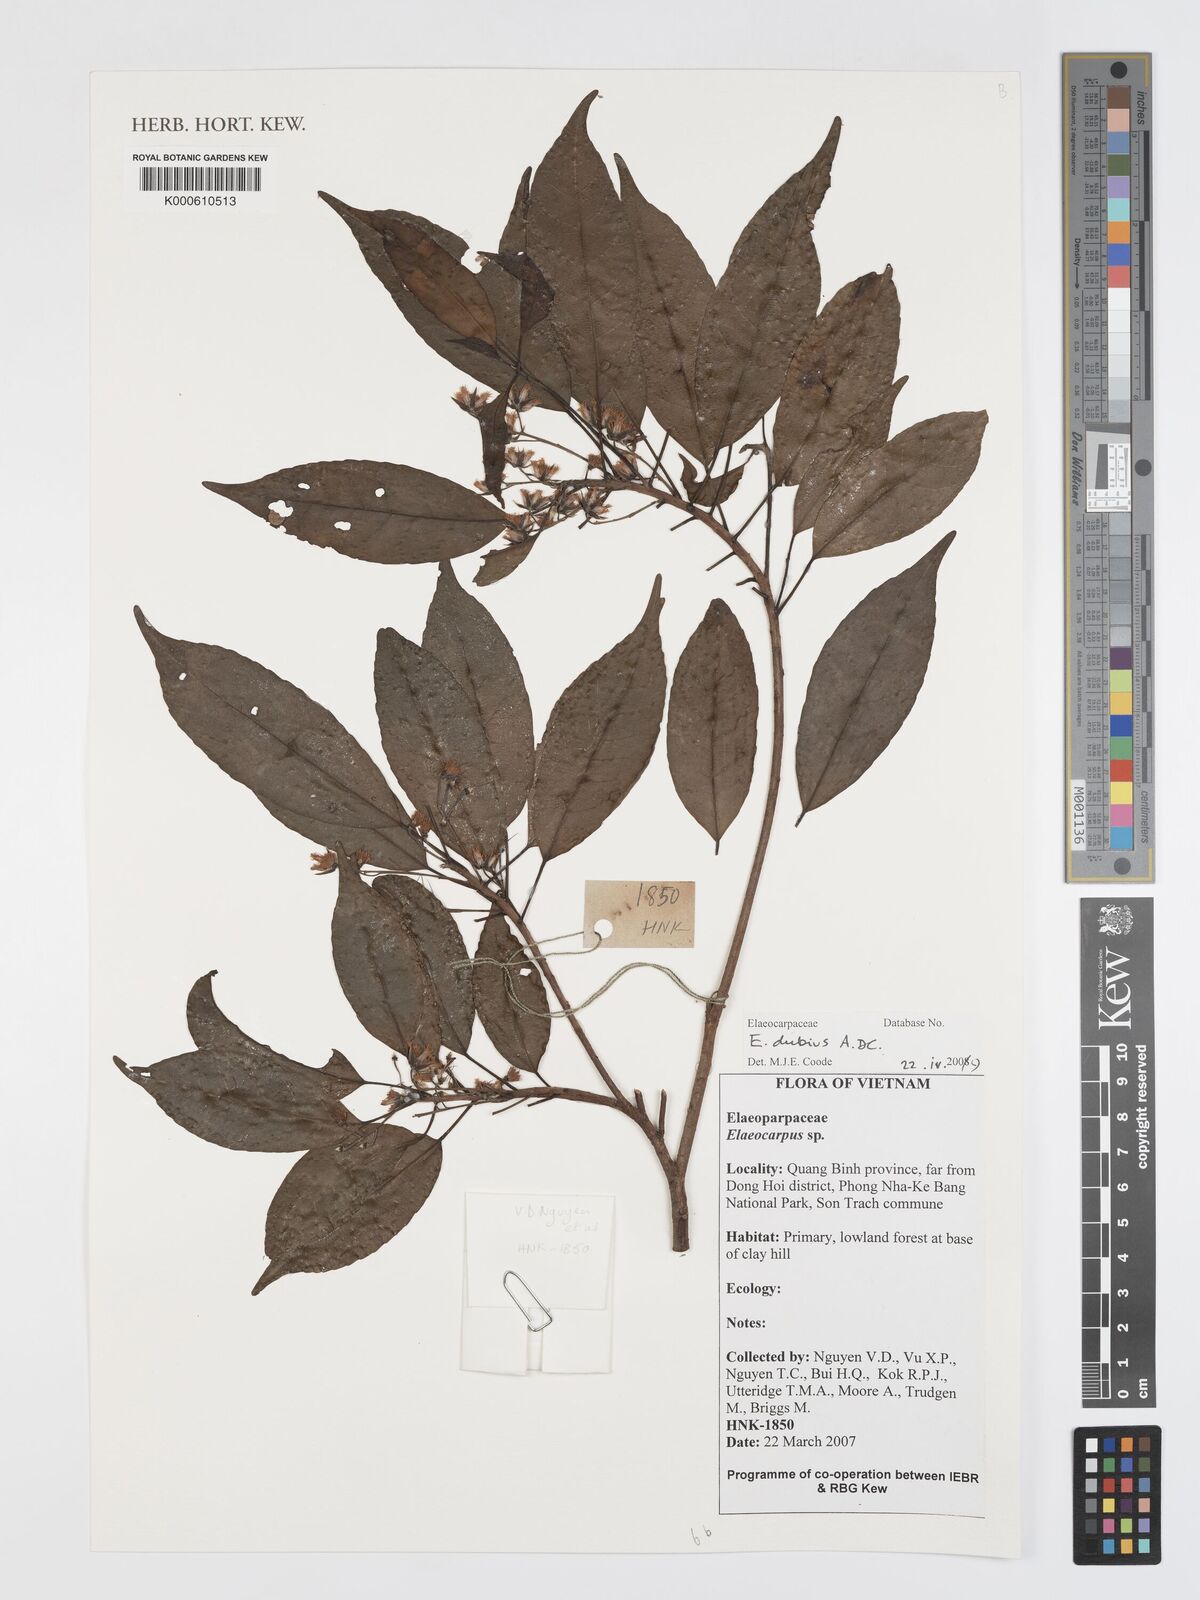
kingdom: Plantae
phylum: Tracheophyta
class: Magnoliopsida
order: Oxalidales
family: Elaeocarpaceae
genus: Elaeocarpus
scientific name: Elaeocarpus dubius
